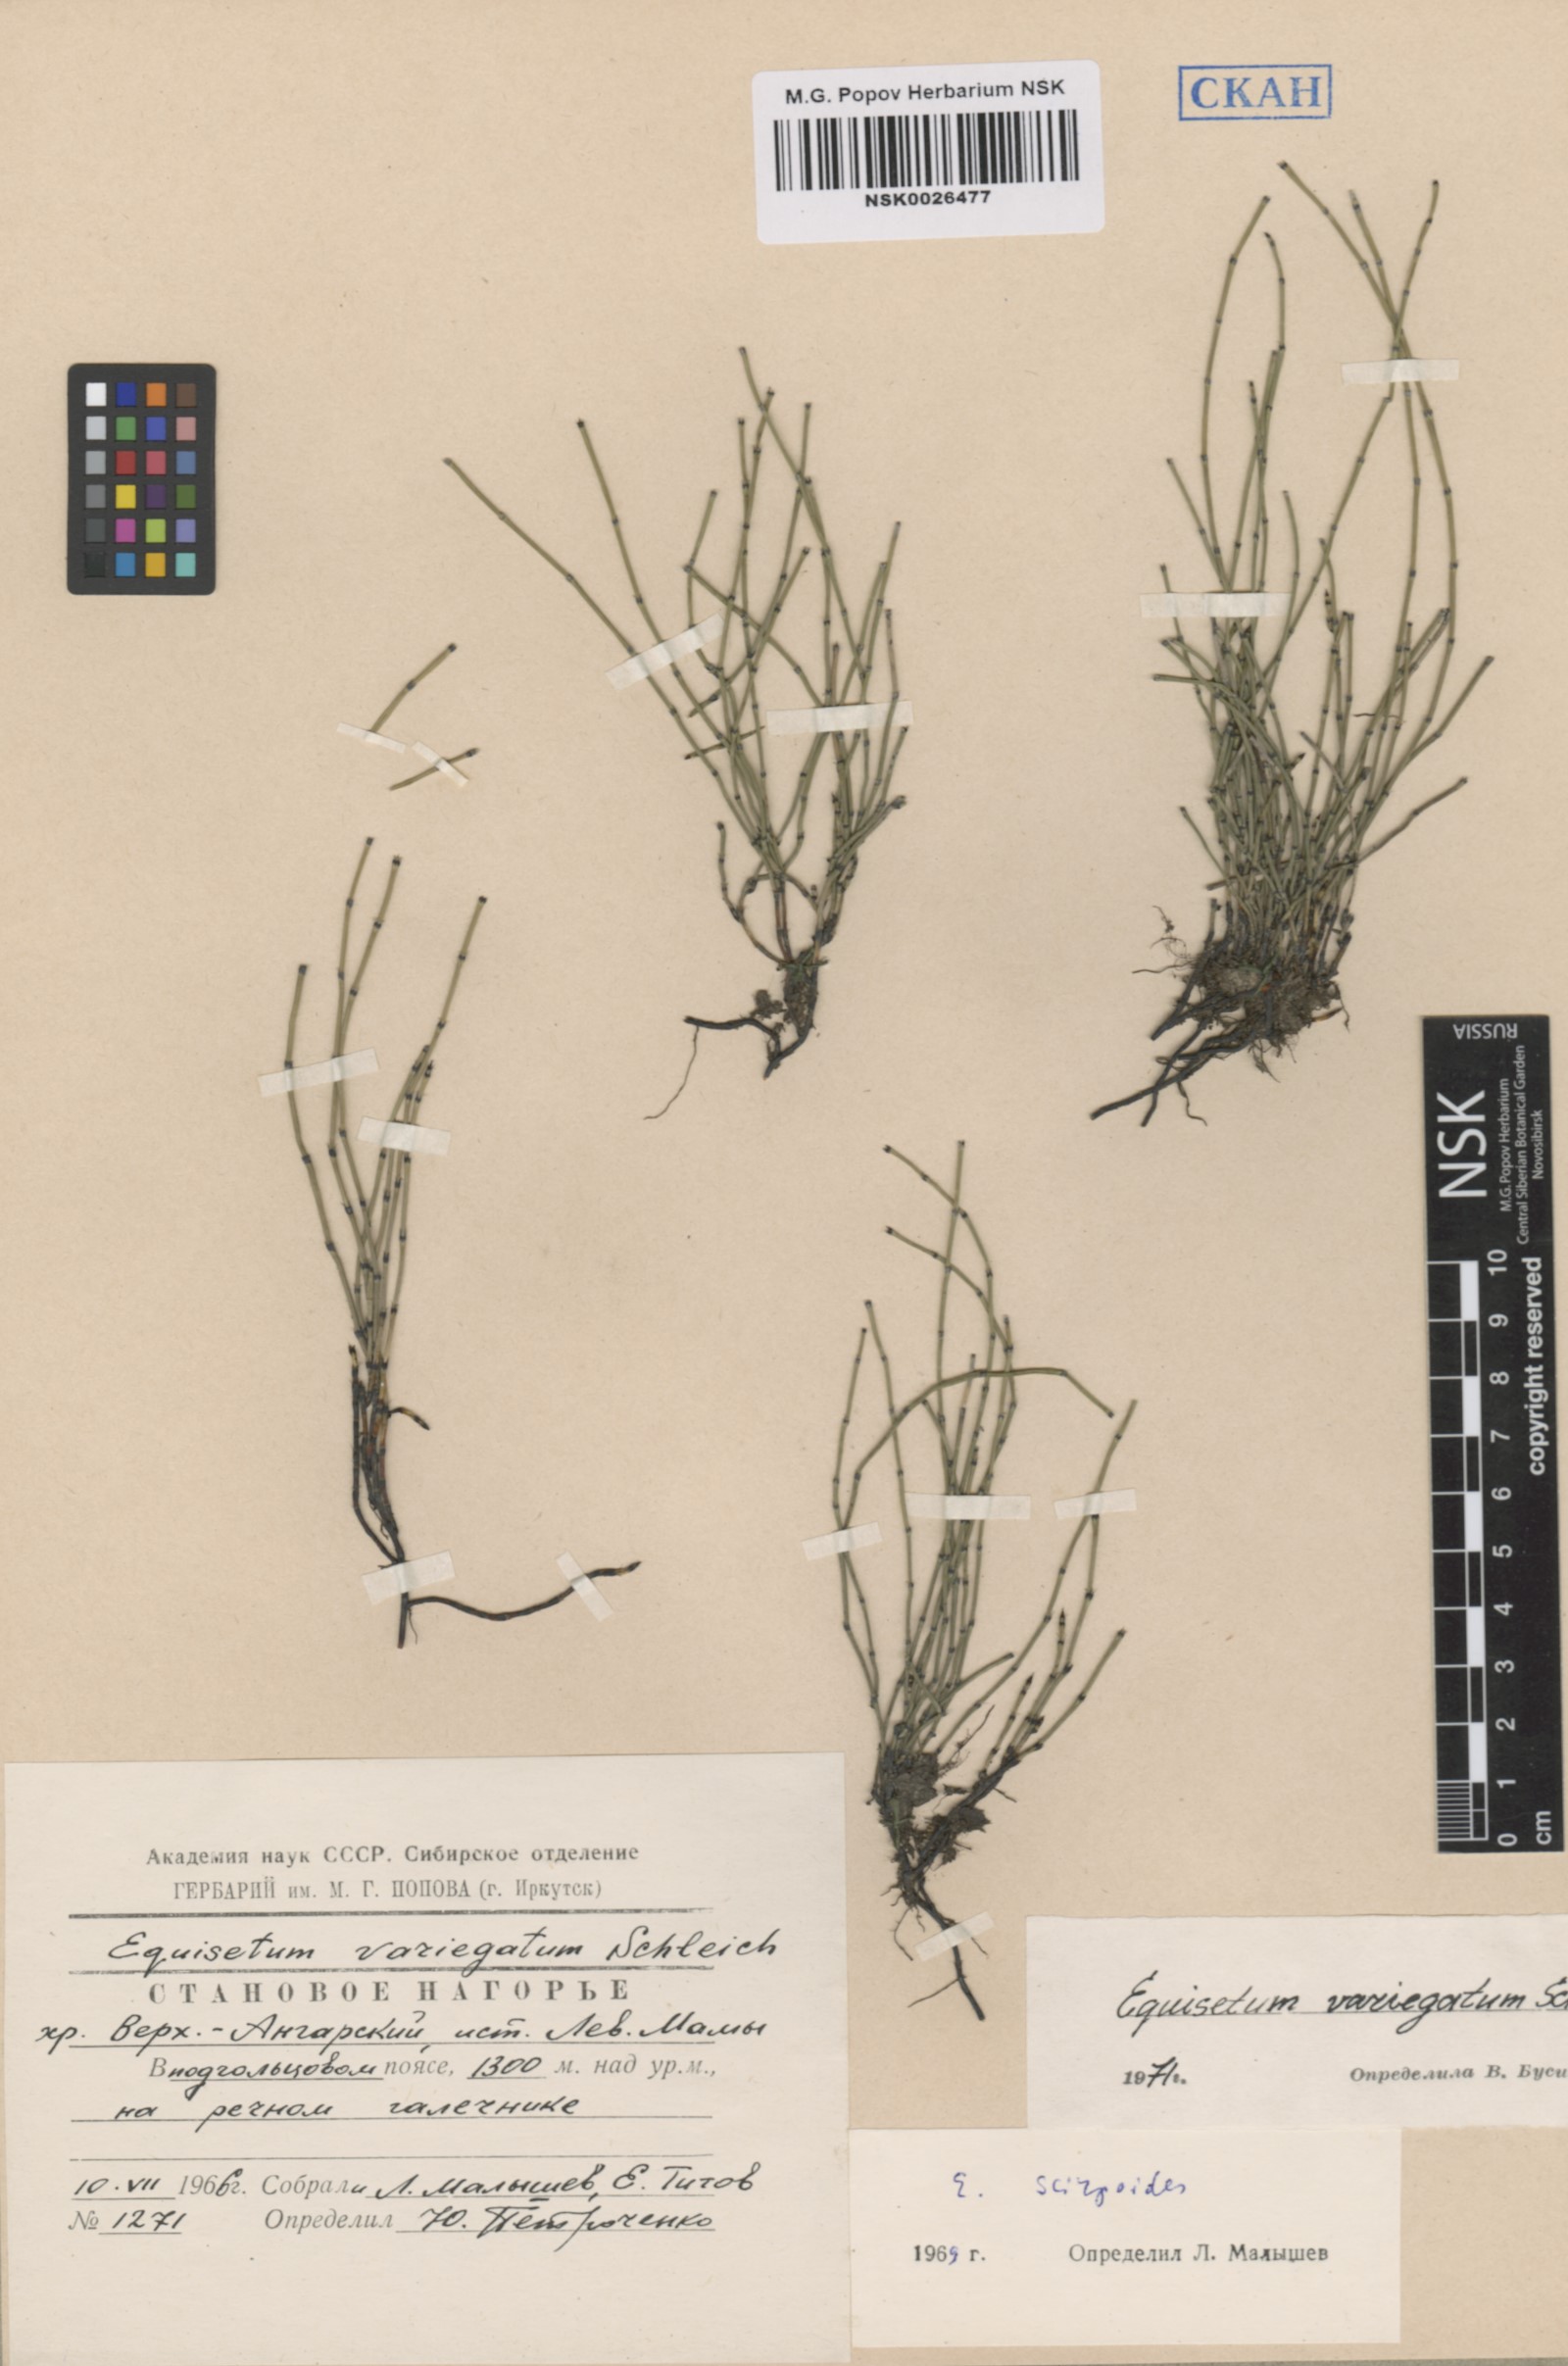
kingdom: Plantae
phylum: Tracheophyta
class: Polypodiopsida
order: Equisetales
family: Equisetaceae
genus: Equisetum
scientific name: Equisetum variegatum
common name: Variegated horsetail
